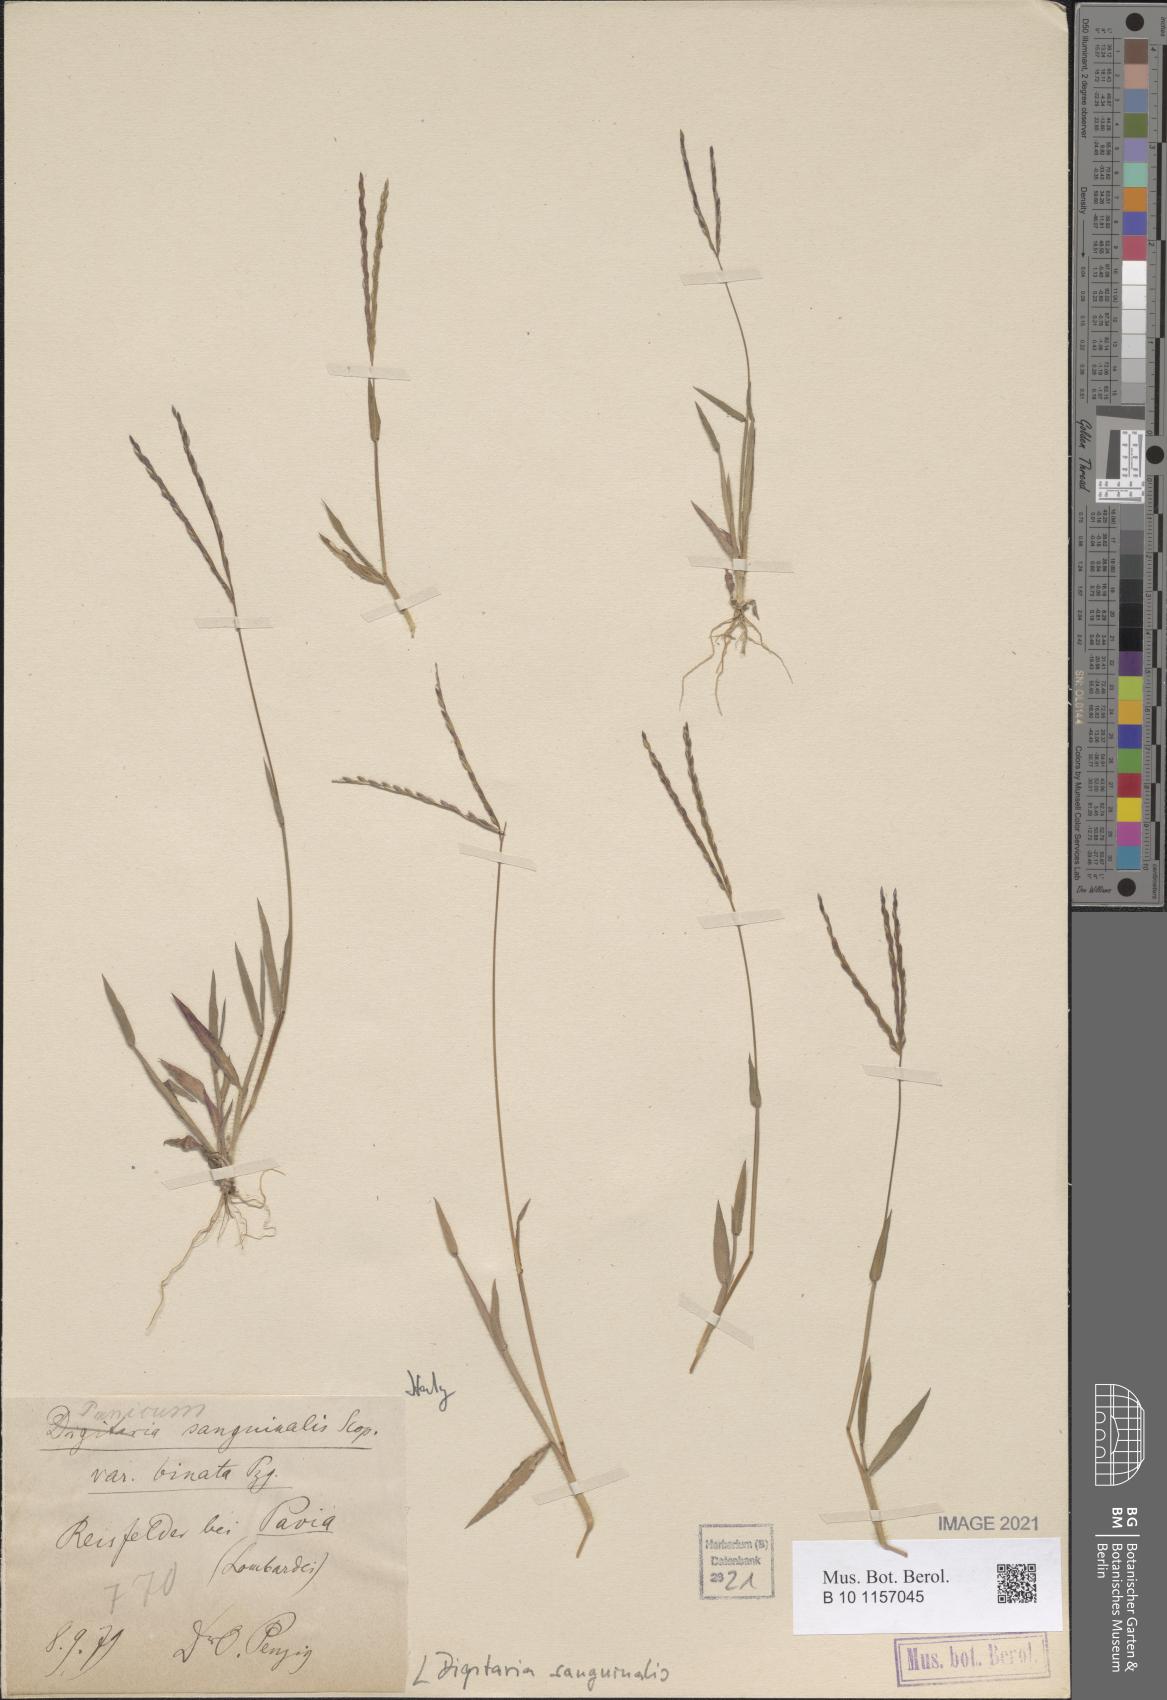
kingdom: Plantae
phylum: Tracheophyta
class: Liliopsida
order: Poales
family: Poaceae
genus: Digitaria
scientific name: Digitaria sanguinalis
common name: Hairy crabgrass
